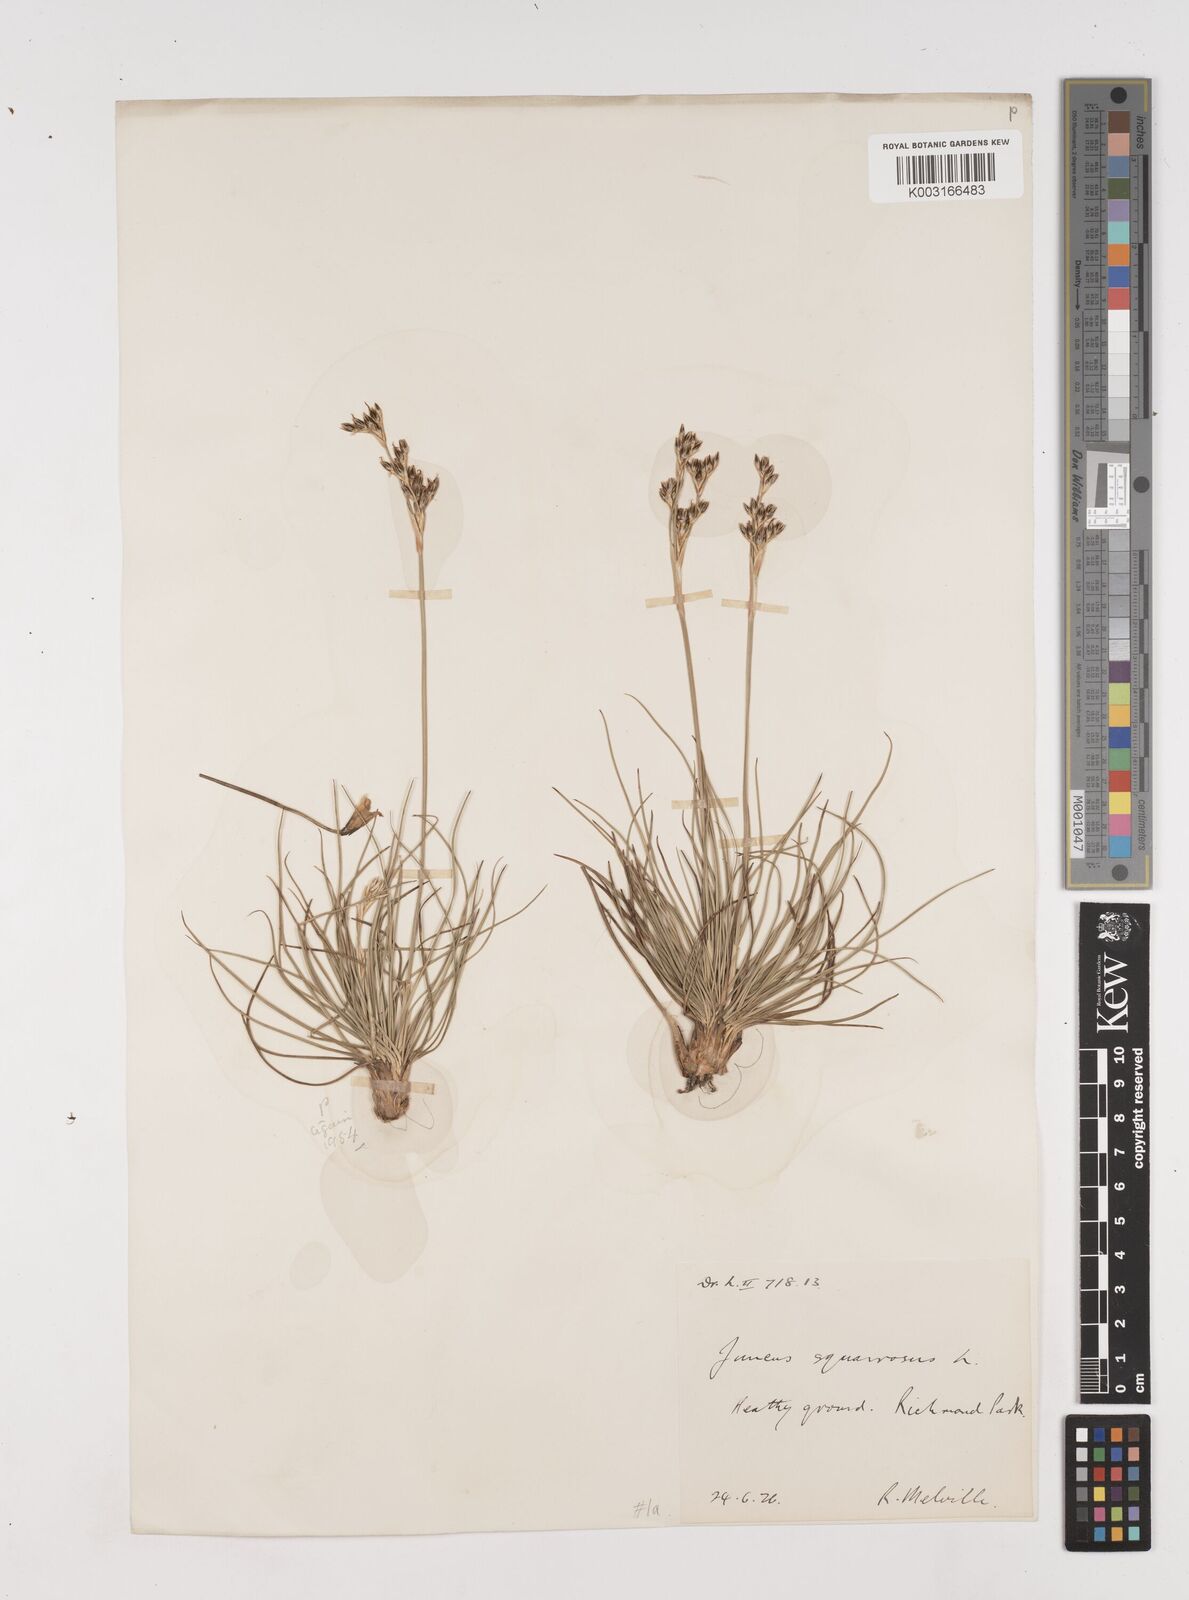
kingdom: Plantae
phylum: Tracheophyta
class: Liliopsida
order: Poales
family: Juncaceae
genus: Juncus
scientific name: Juncus squarrosus
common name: Heath rush
